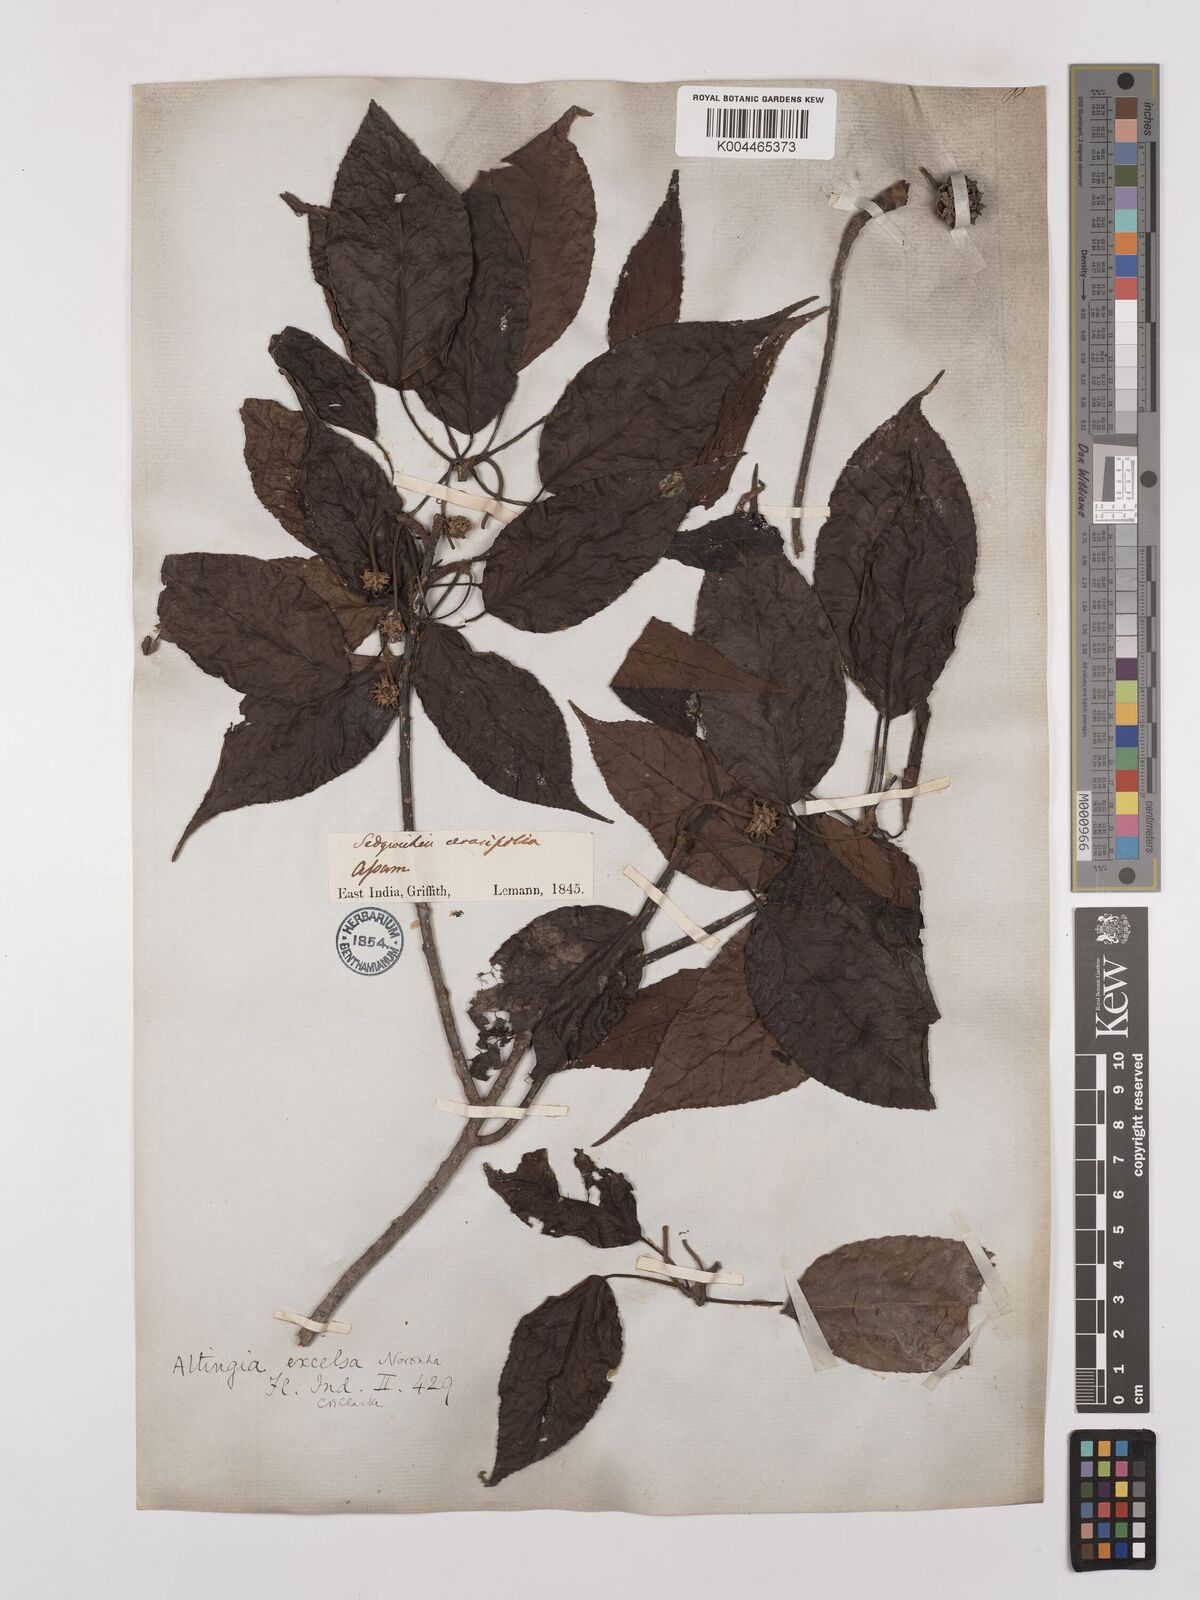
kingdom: Plantae
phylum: Tracheophyta
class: Magnoliopsida
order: Saxifragales
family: Altingiaceae
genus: Liquidambar
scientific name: Liquidambar excelsa
